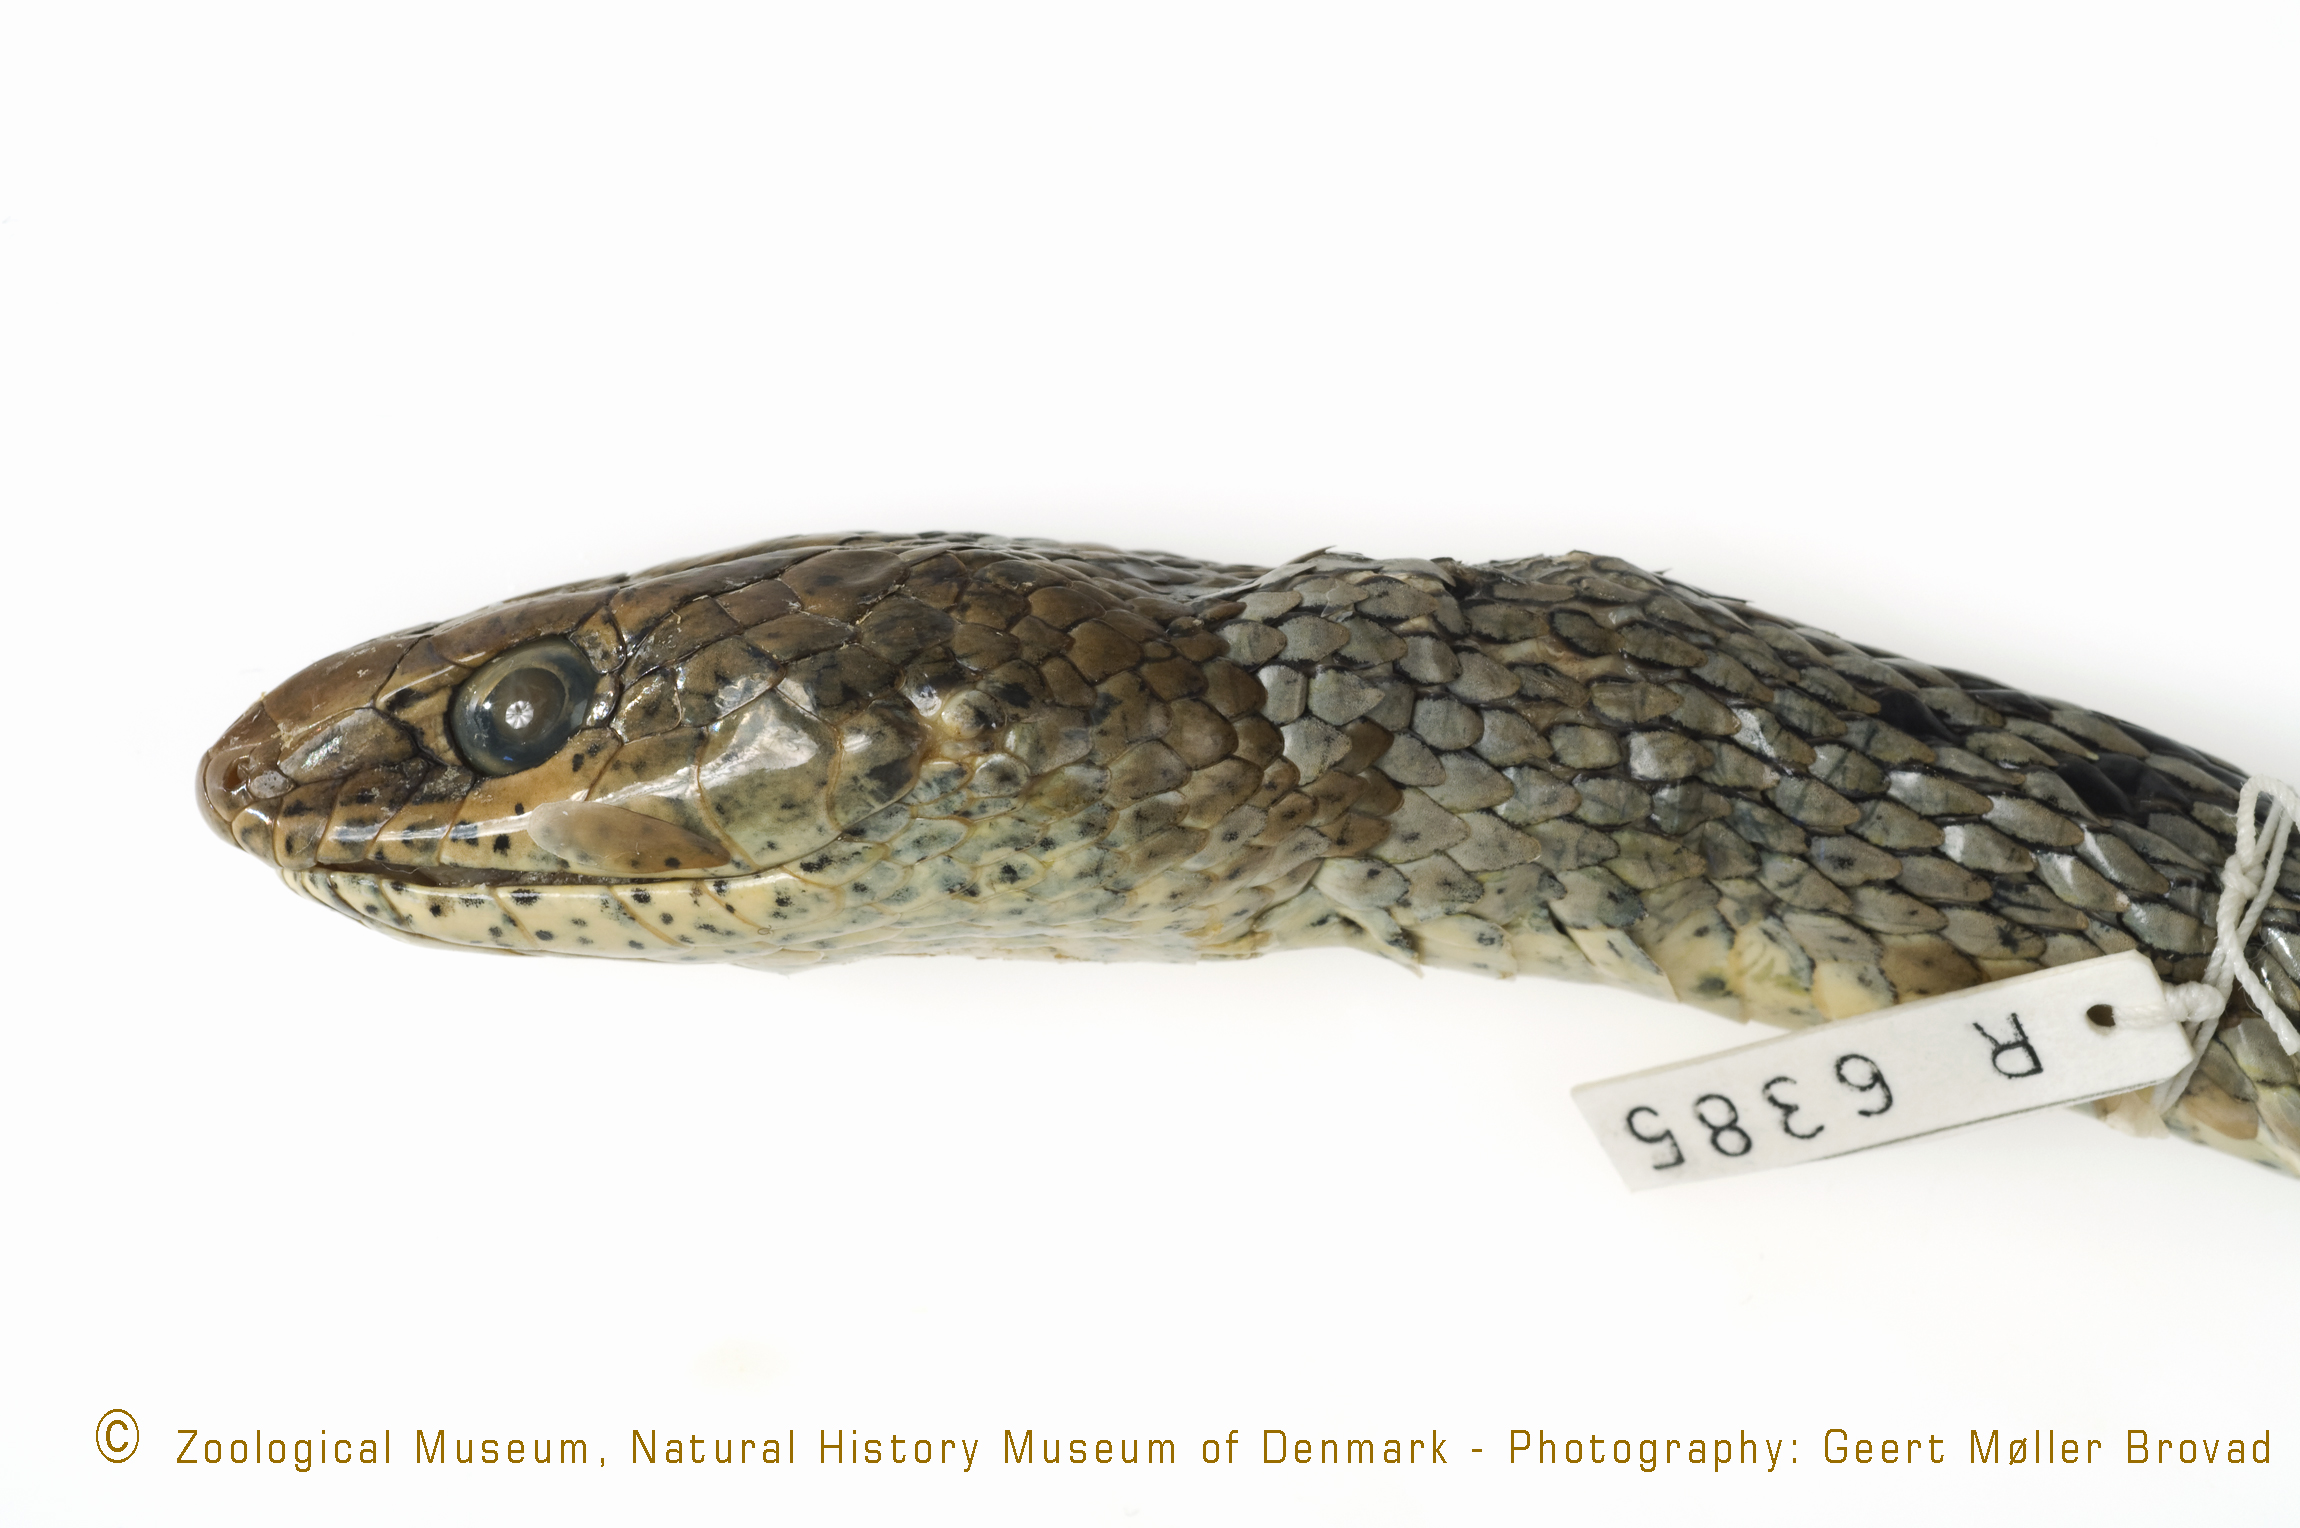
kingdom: Animalia
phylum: Chordata
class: Squamata
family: Psammophiidae
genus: Psammophis
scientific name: Psammophis phillipsii
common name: Olive grass racer
